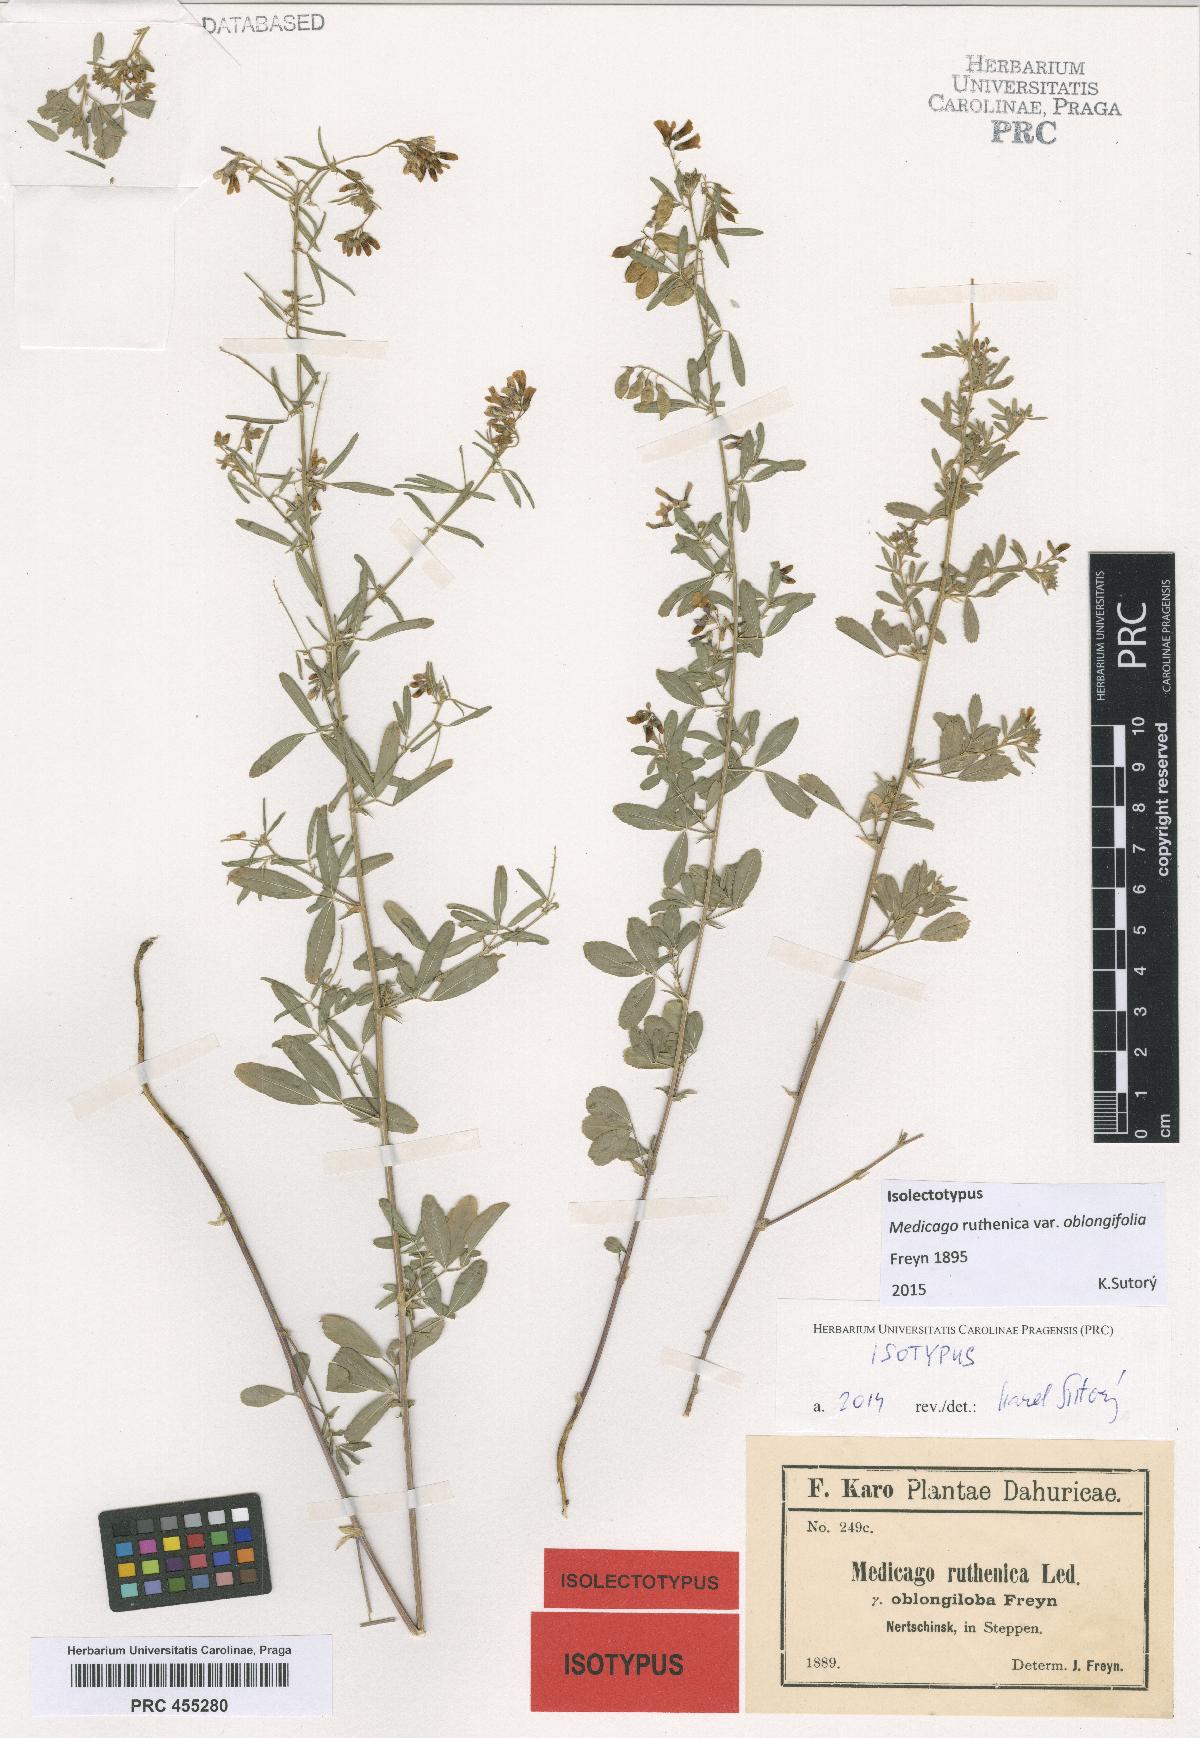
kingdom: Plantae
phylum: Tracheophyta
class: Magnoliopsida
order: Fabales
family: Fabaceae
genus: Medicago
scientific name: Medicago ruthenica
